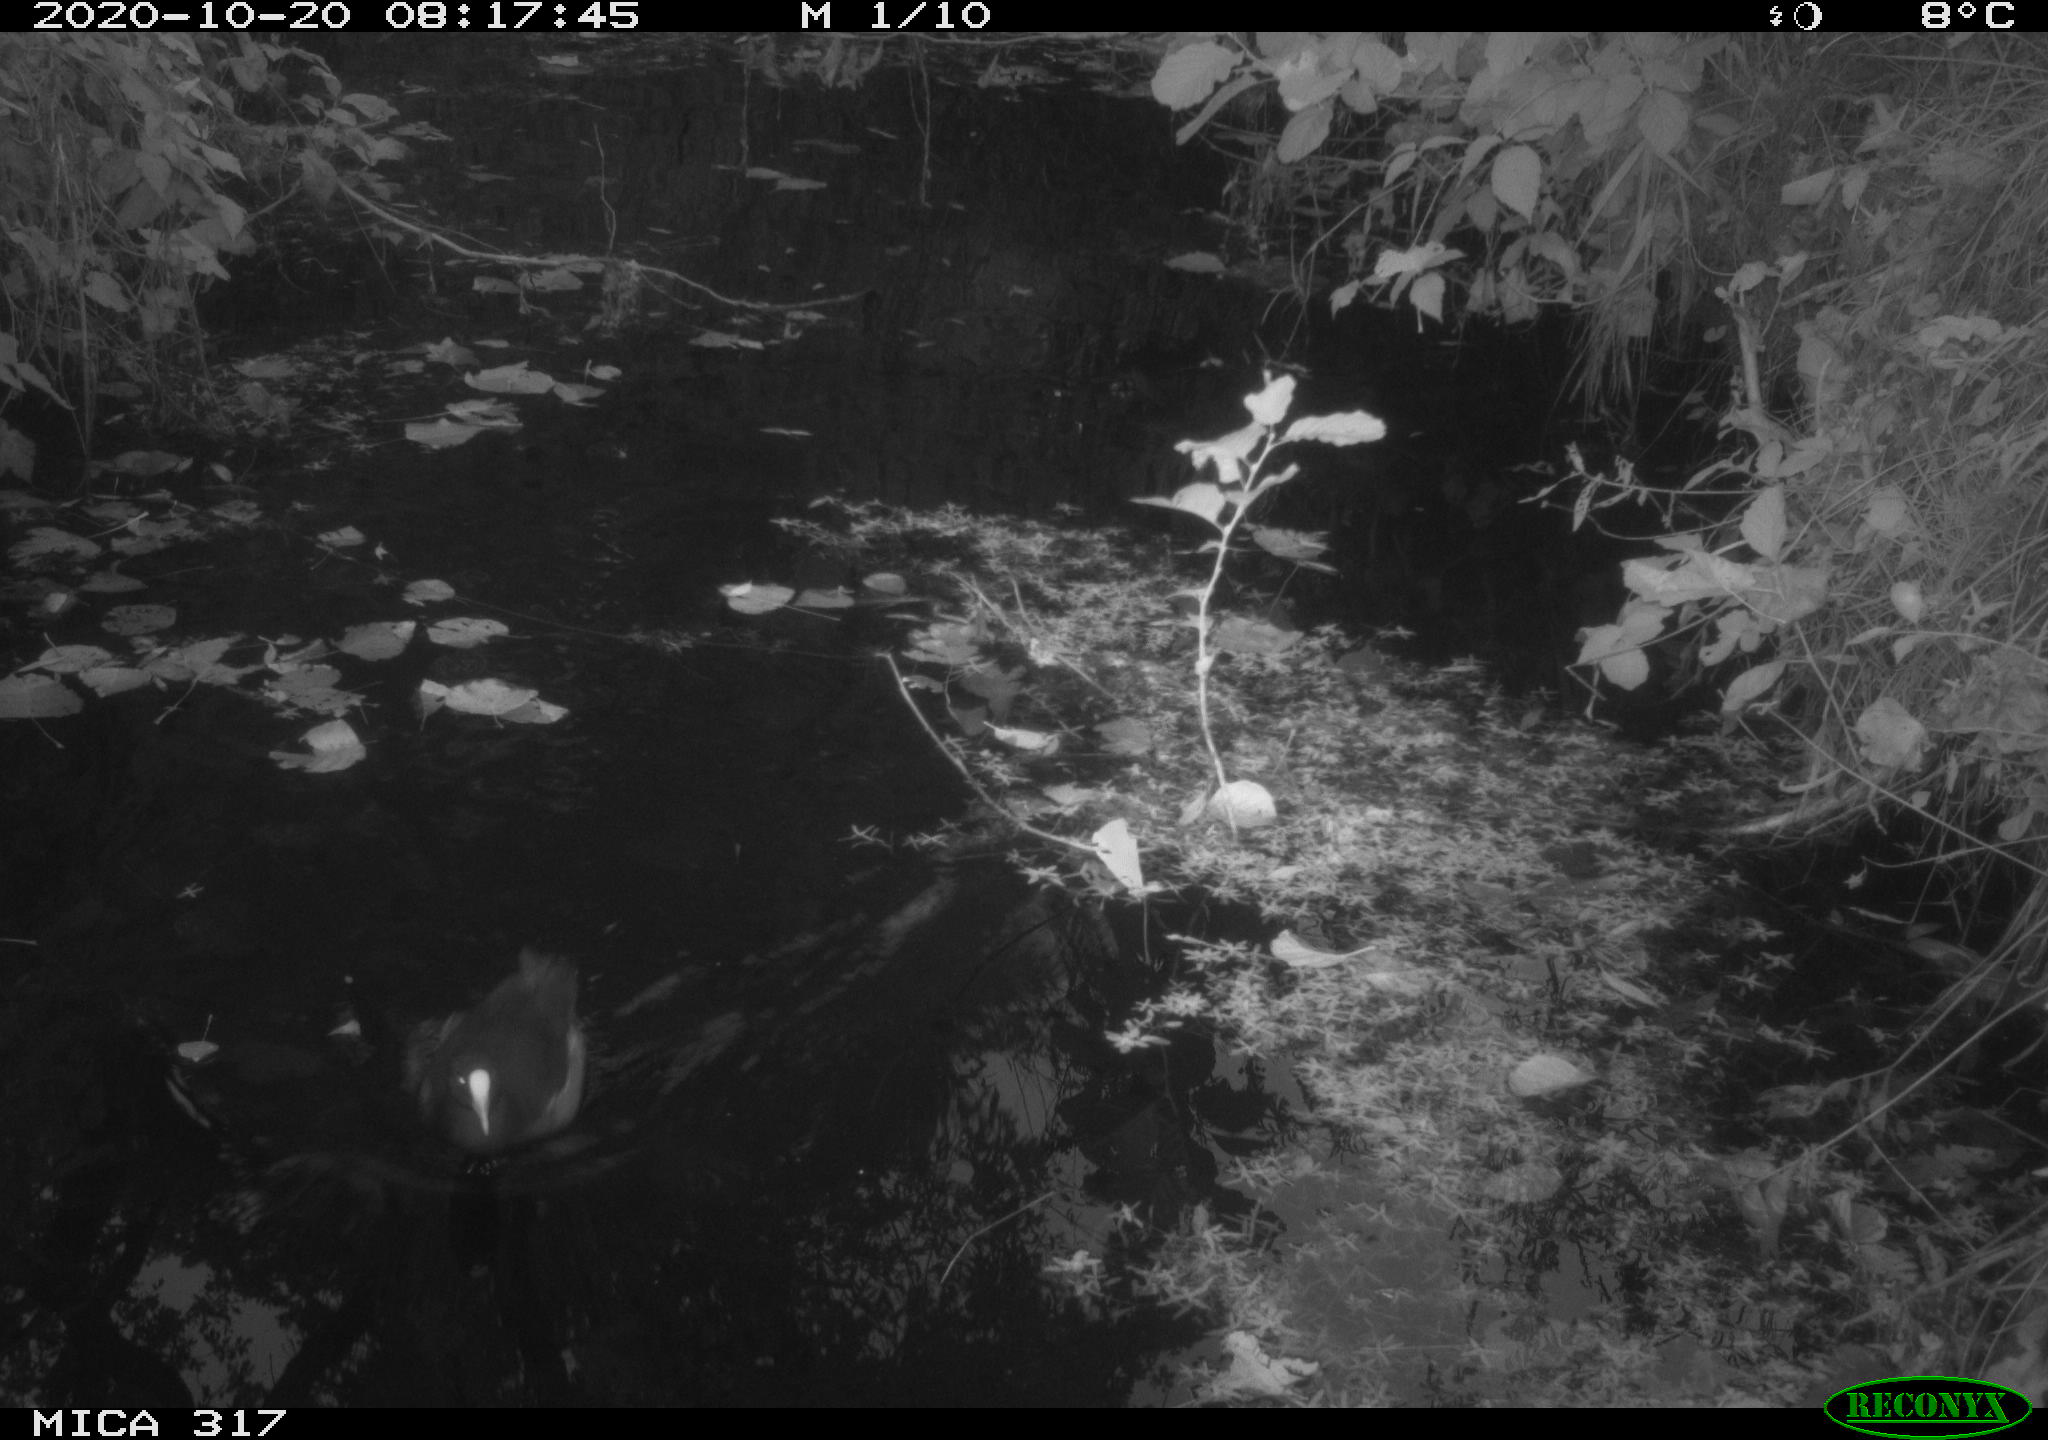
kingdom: Animalia
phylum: Chordata
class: Aves
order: Gruiformes
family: Rallidae
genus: Gallinula
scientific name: Gallinula chloropus
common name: Common moorhen
